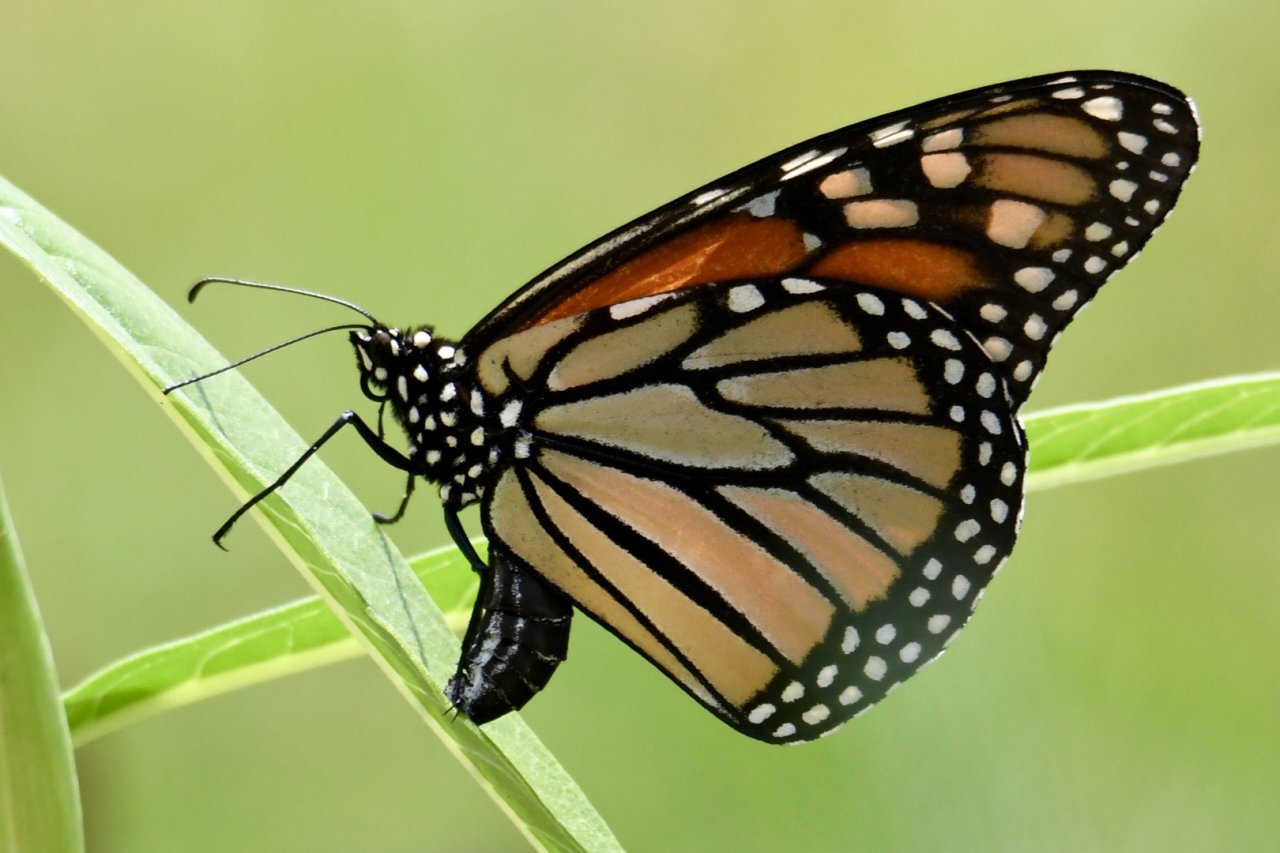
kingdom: Animalia
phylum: Arthropoda
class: Insecta
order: Lepidoptera
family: Nymphalidae
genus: Danaus
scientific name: Danaus plexippus
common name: Monarch
